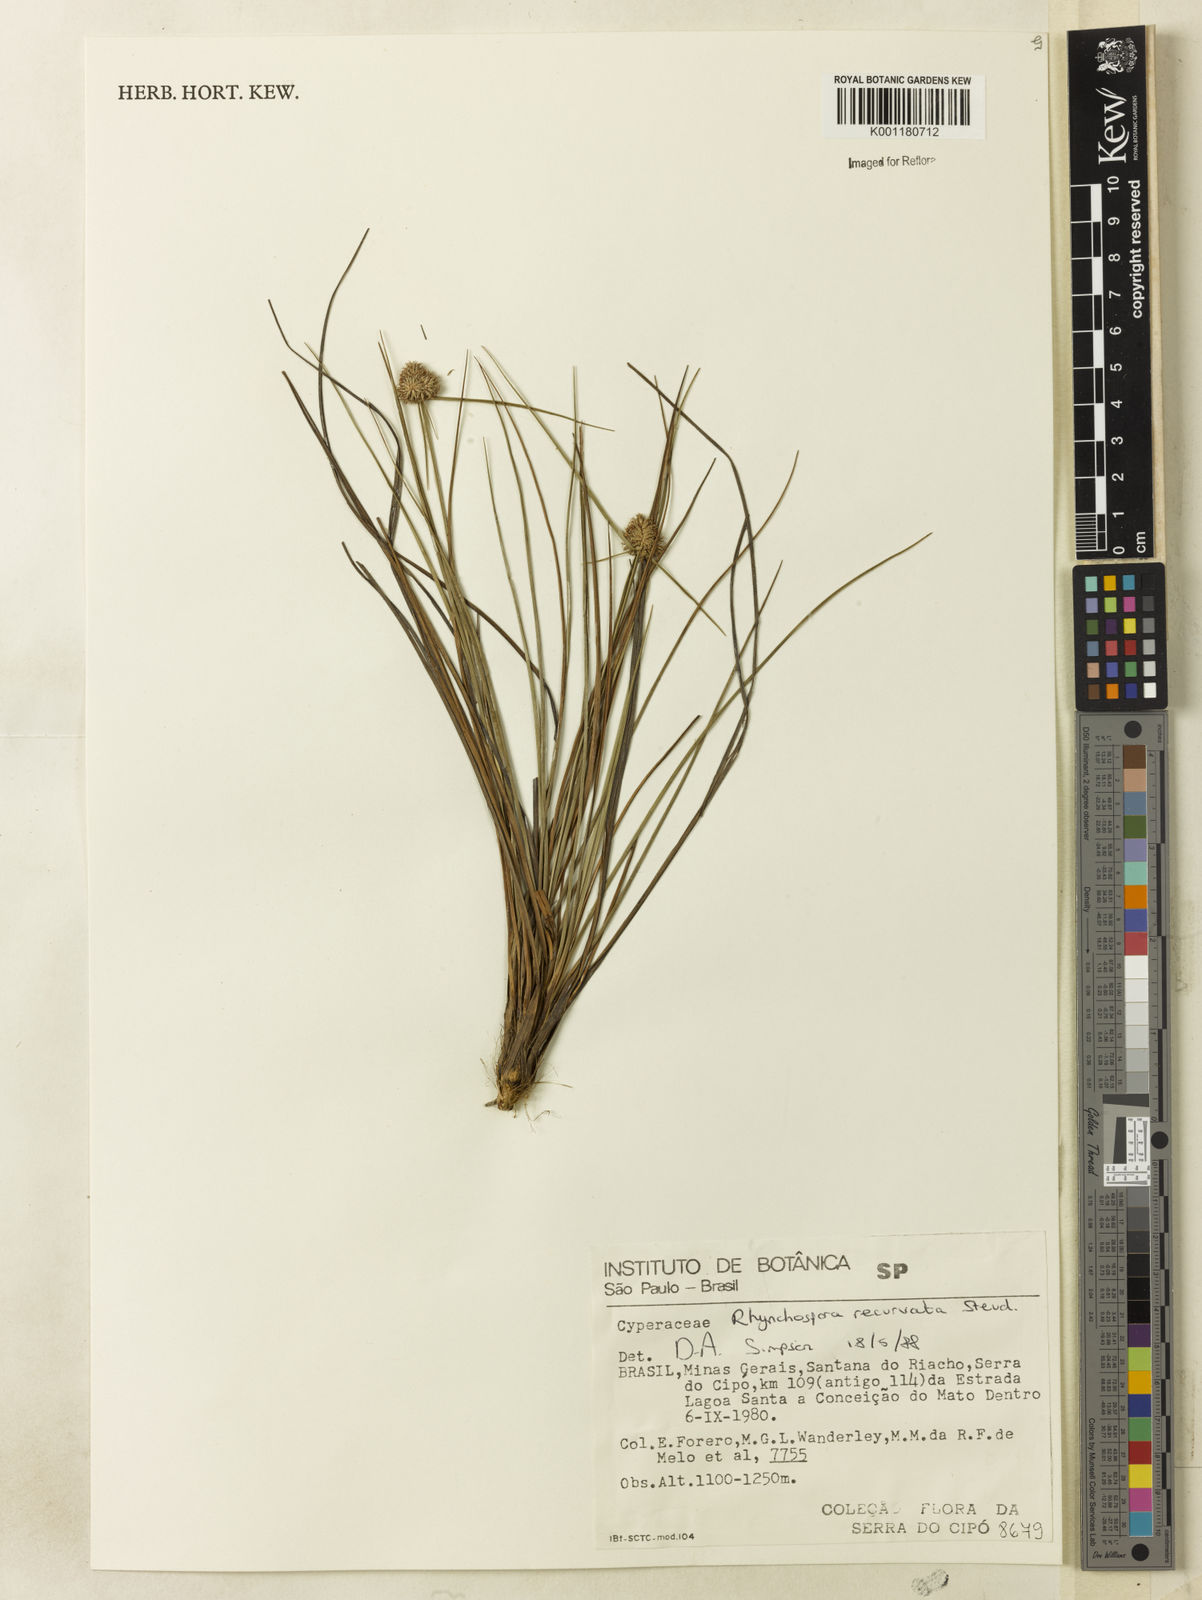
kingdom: Plantae
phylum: Tracheophyta
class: Liliopsida
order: Poales
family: Cyperaceae
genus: Rhynchospora
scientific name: Rhynchospora recurvata
